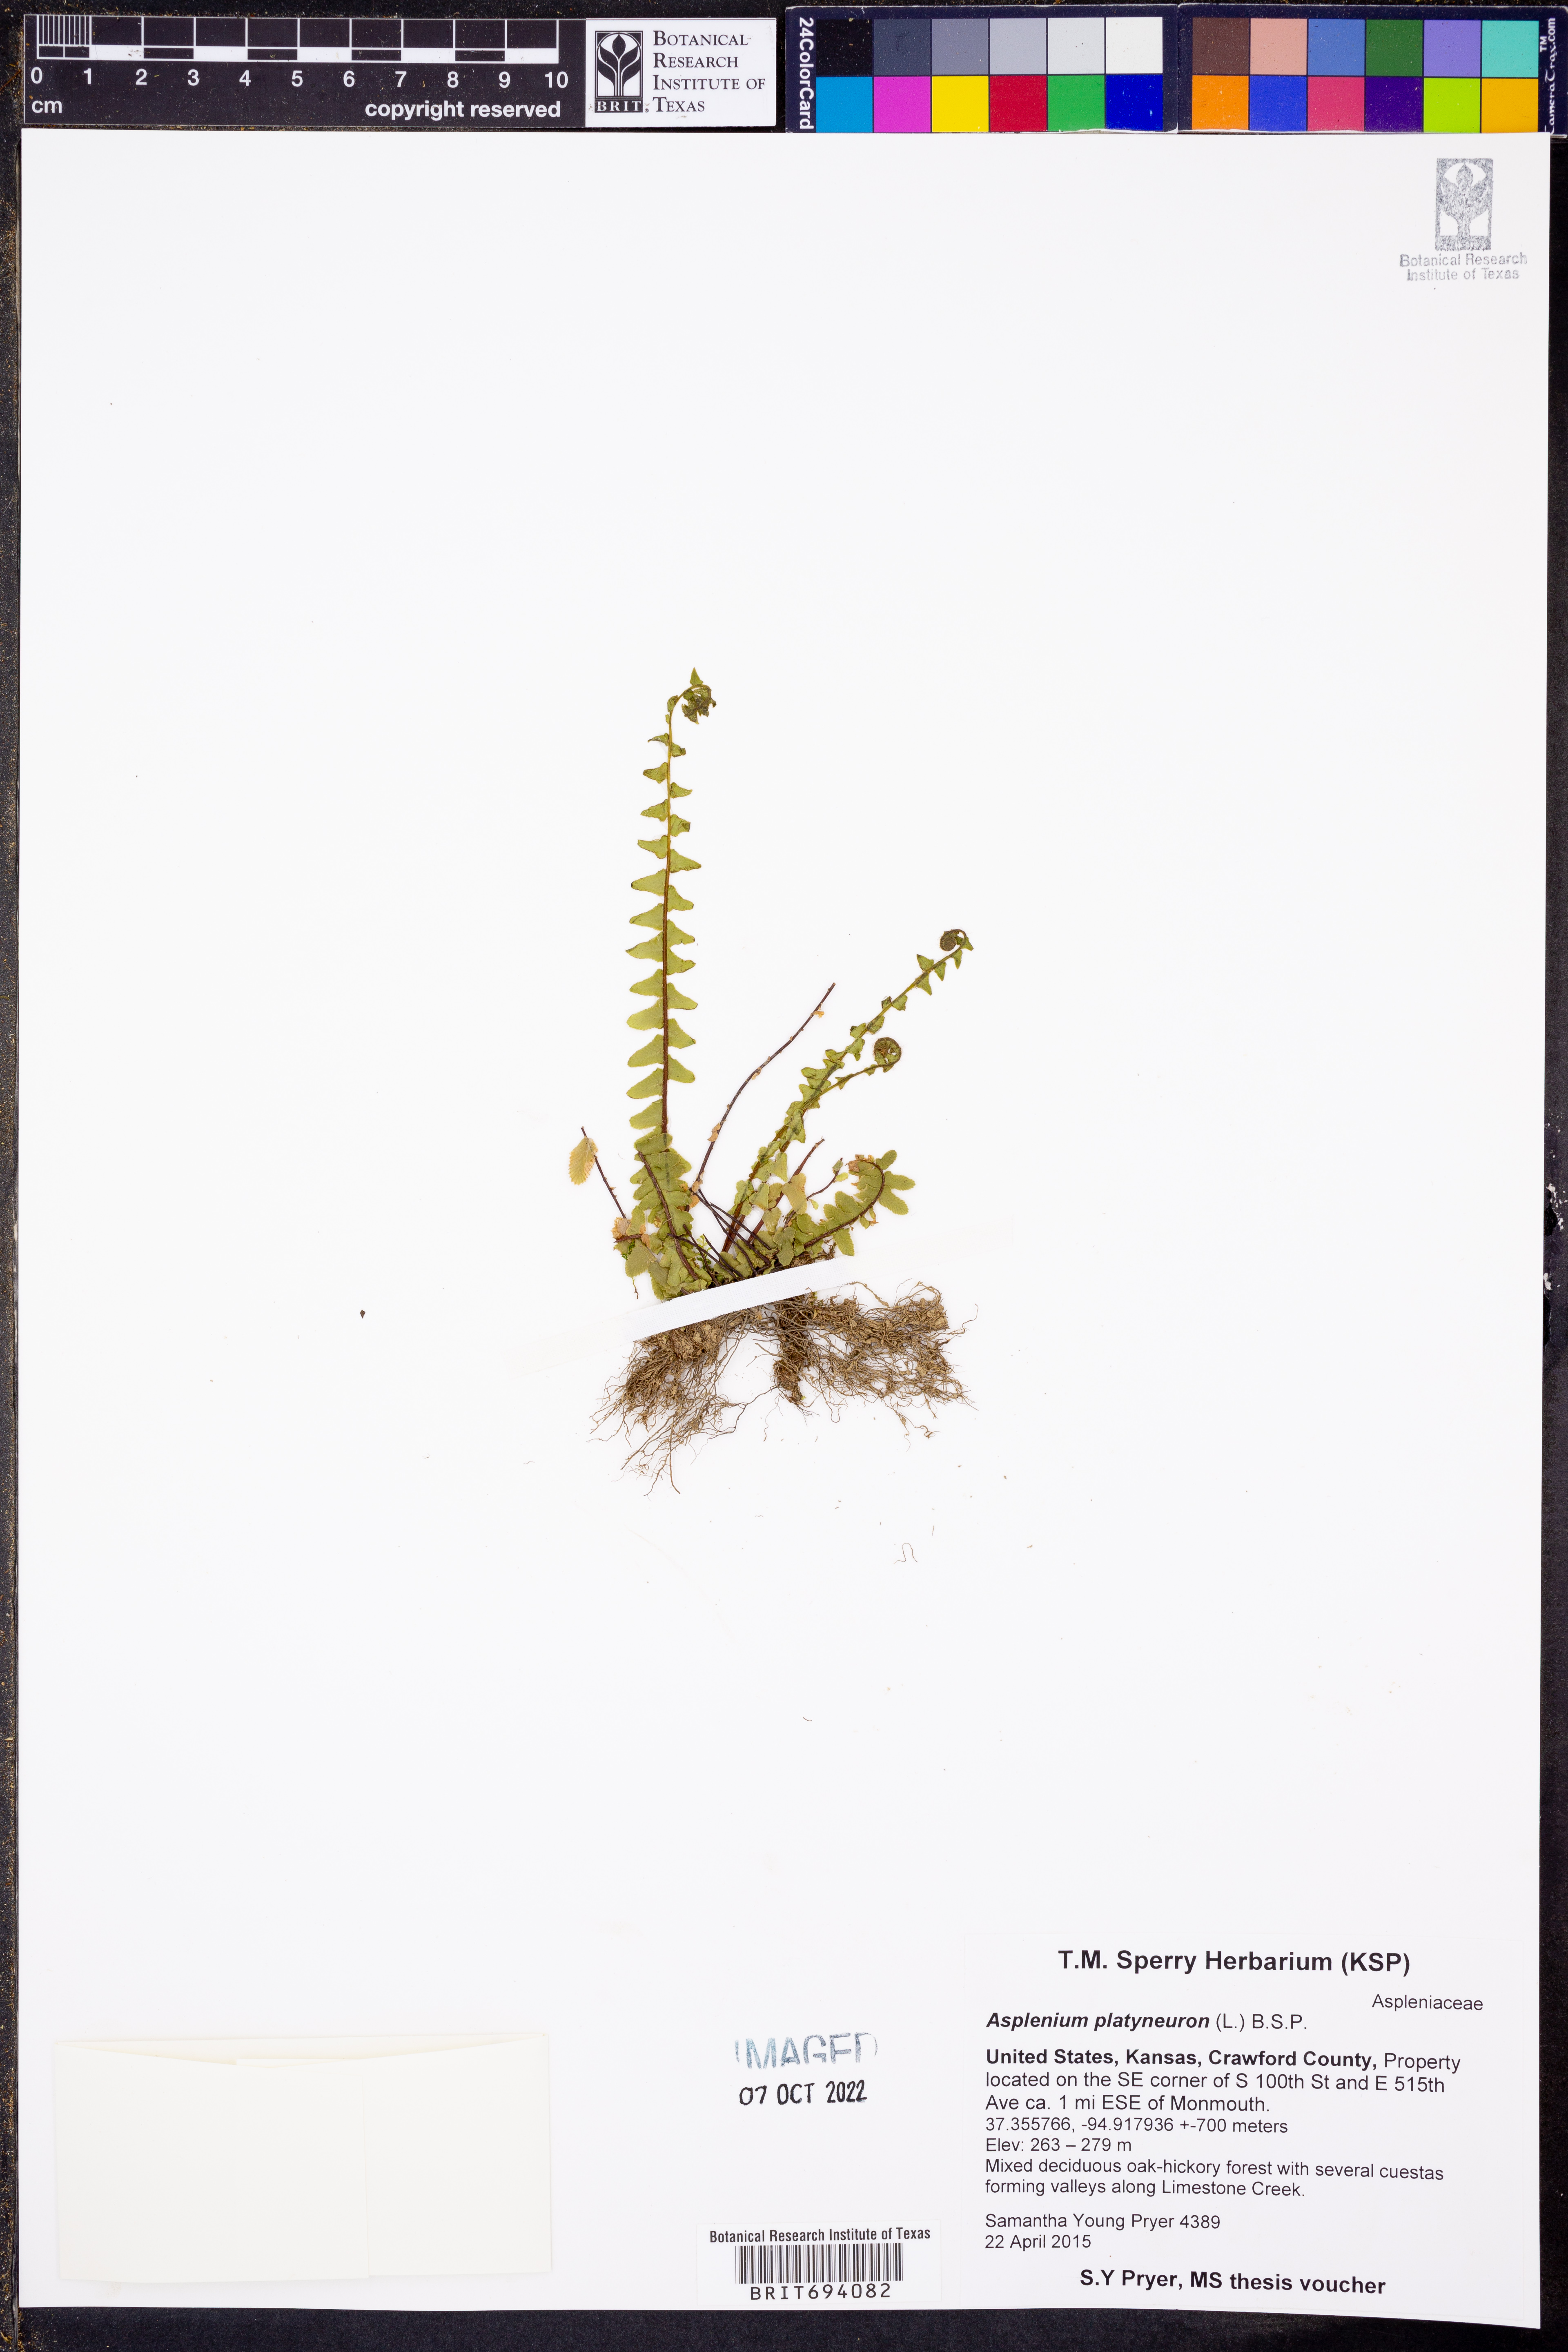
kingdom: Plantae
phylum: Tracheophyta
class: Polypodiopsida
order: Polypodiales
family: Aspleniaceae
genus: Asplenium
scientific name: Asplenium platyneuron
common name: Ebony spleenwort
